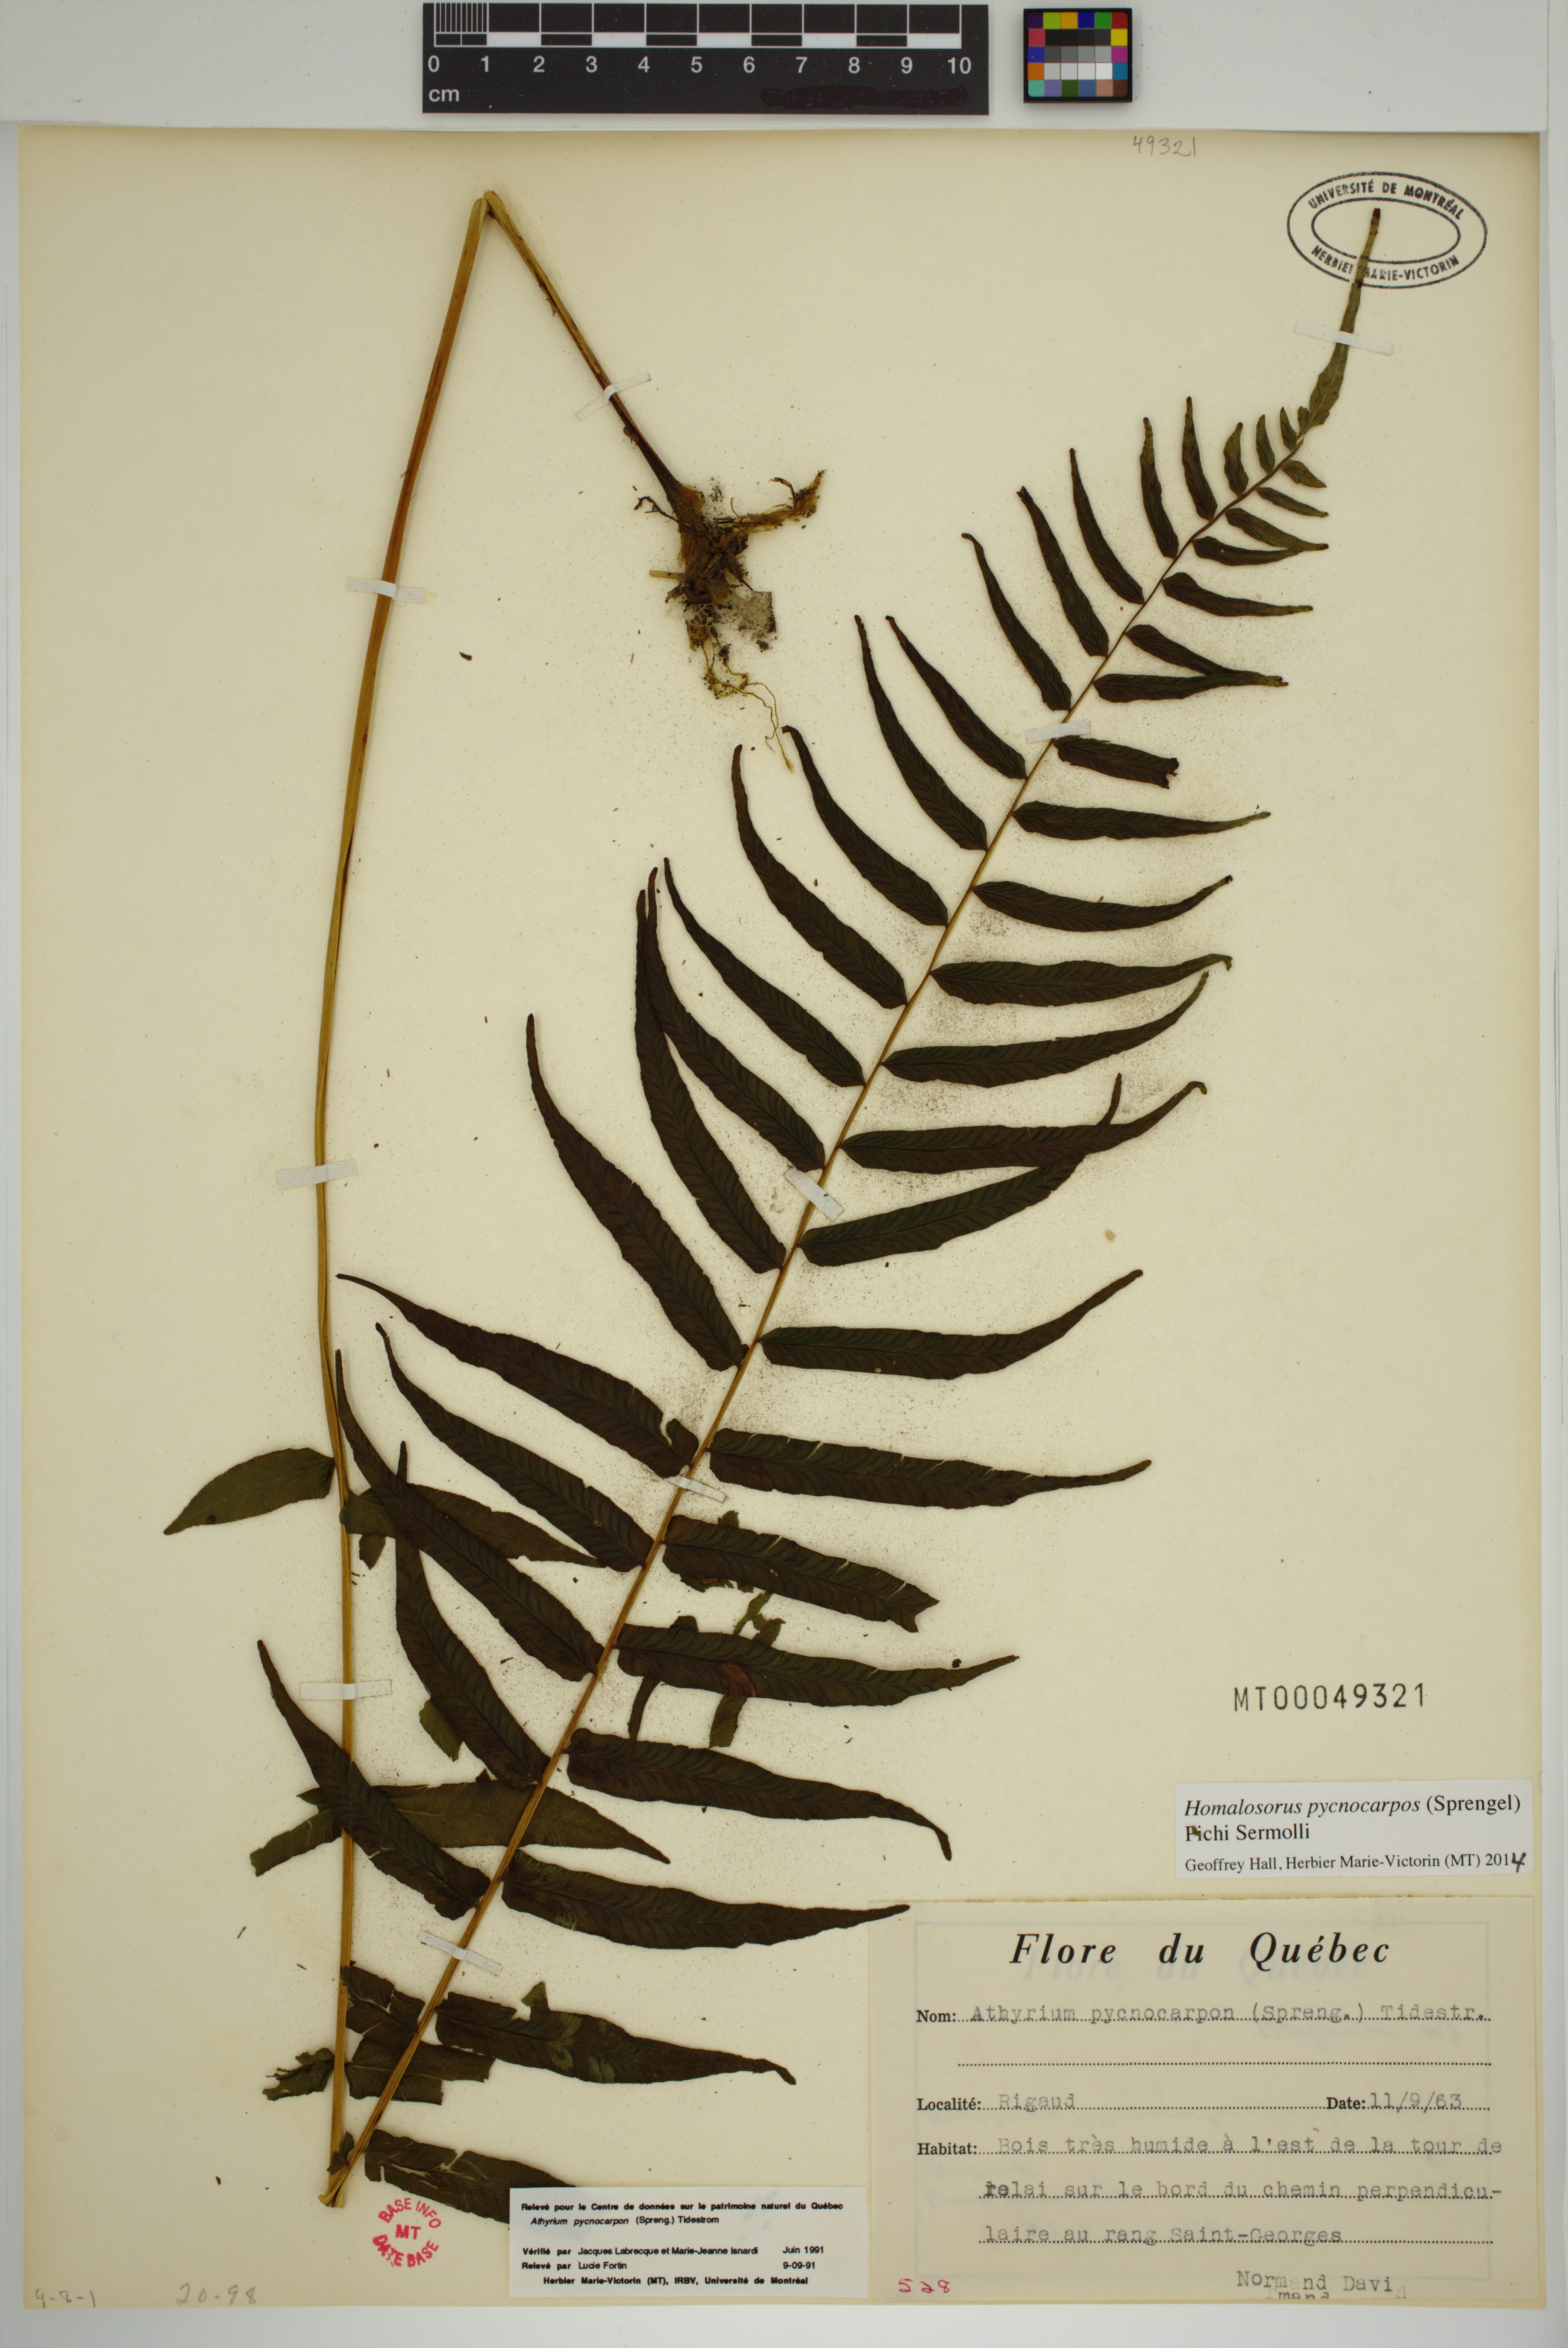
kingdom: Plantae
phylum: Tracheophyta
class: Polypodiopsida
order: Polypodiales
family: Diplaziopsidaceae
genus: Homalosorus
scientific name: Homalosorus pycnocarpos
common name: Glade fern
